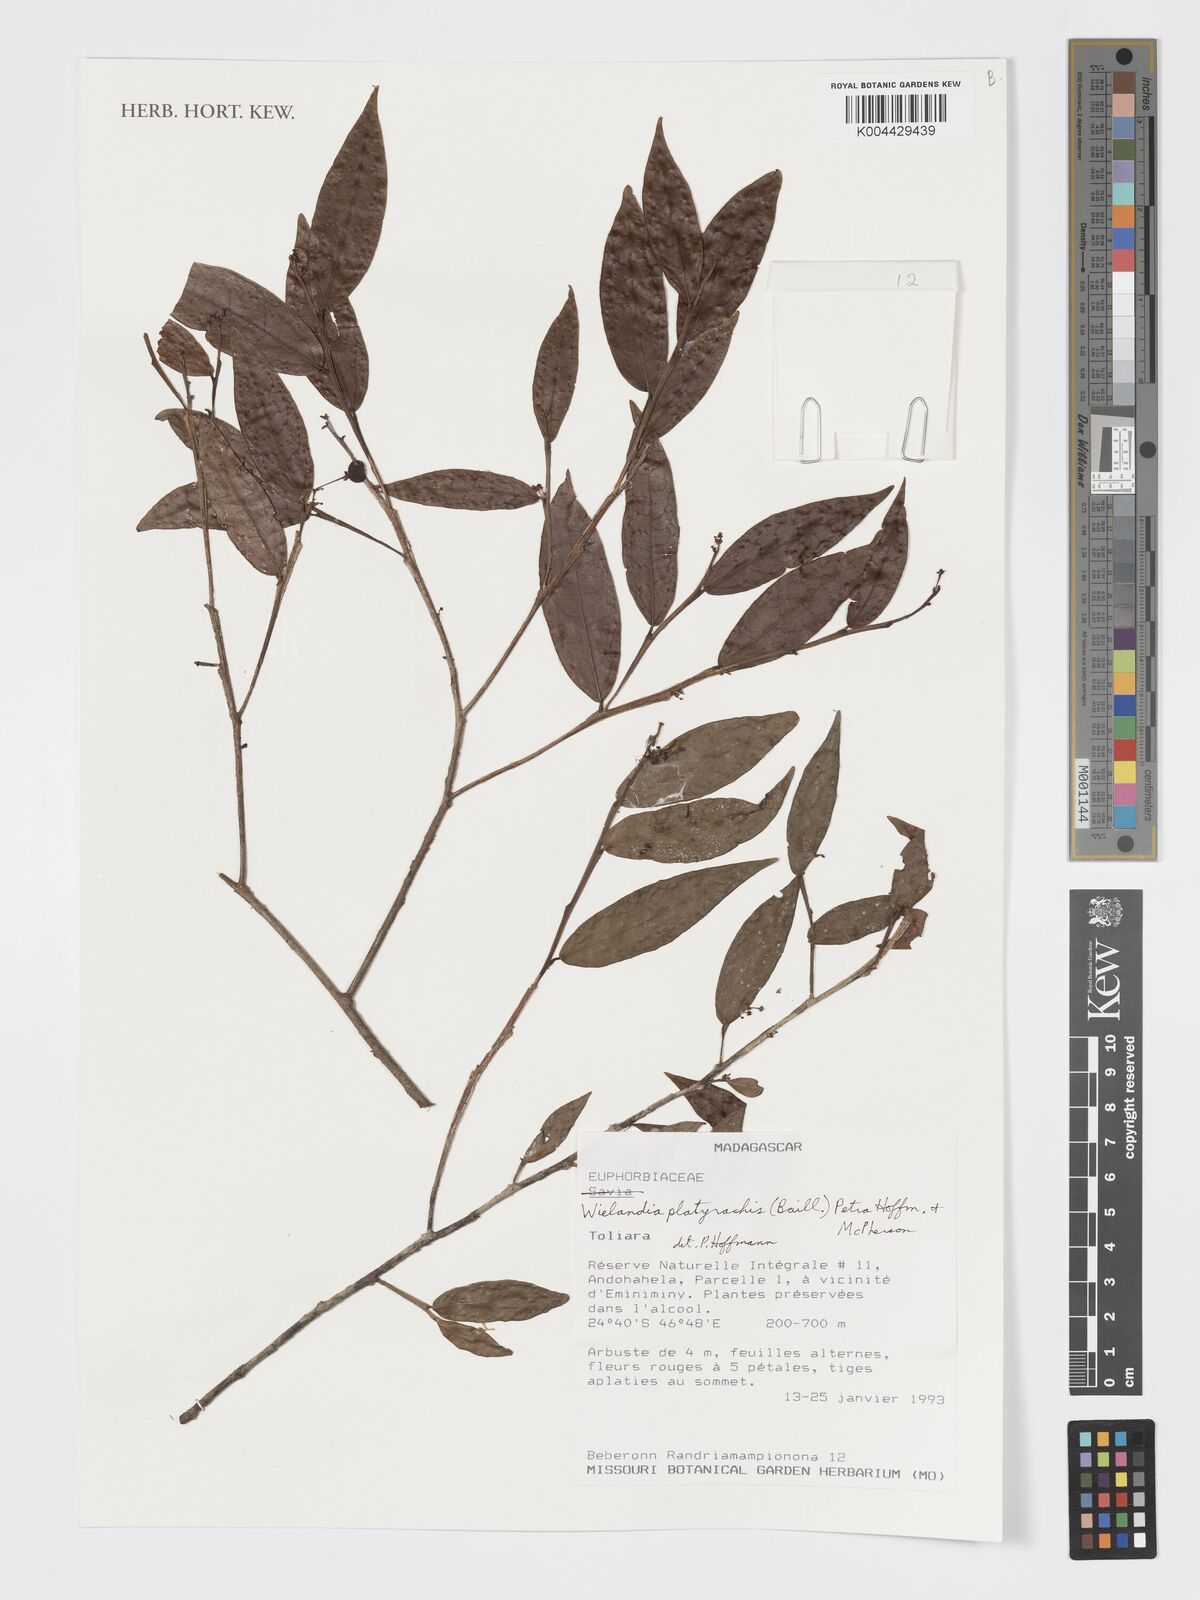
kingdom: Plantae
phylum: Tracheophyta
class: Magnoliopsida
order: Malpighiales
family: Phyllanthaceae
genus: Wielandia
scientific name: Wielandia platyrachis
